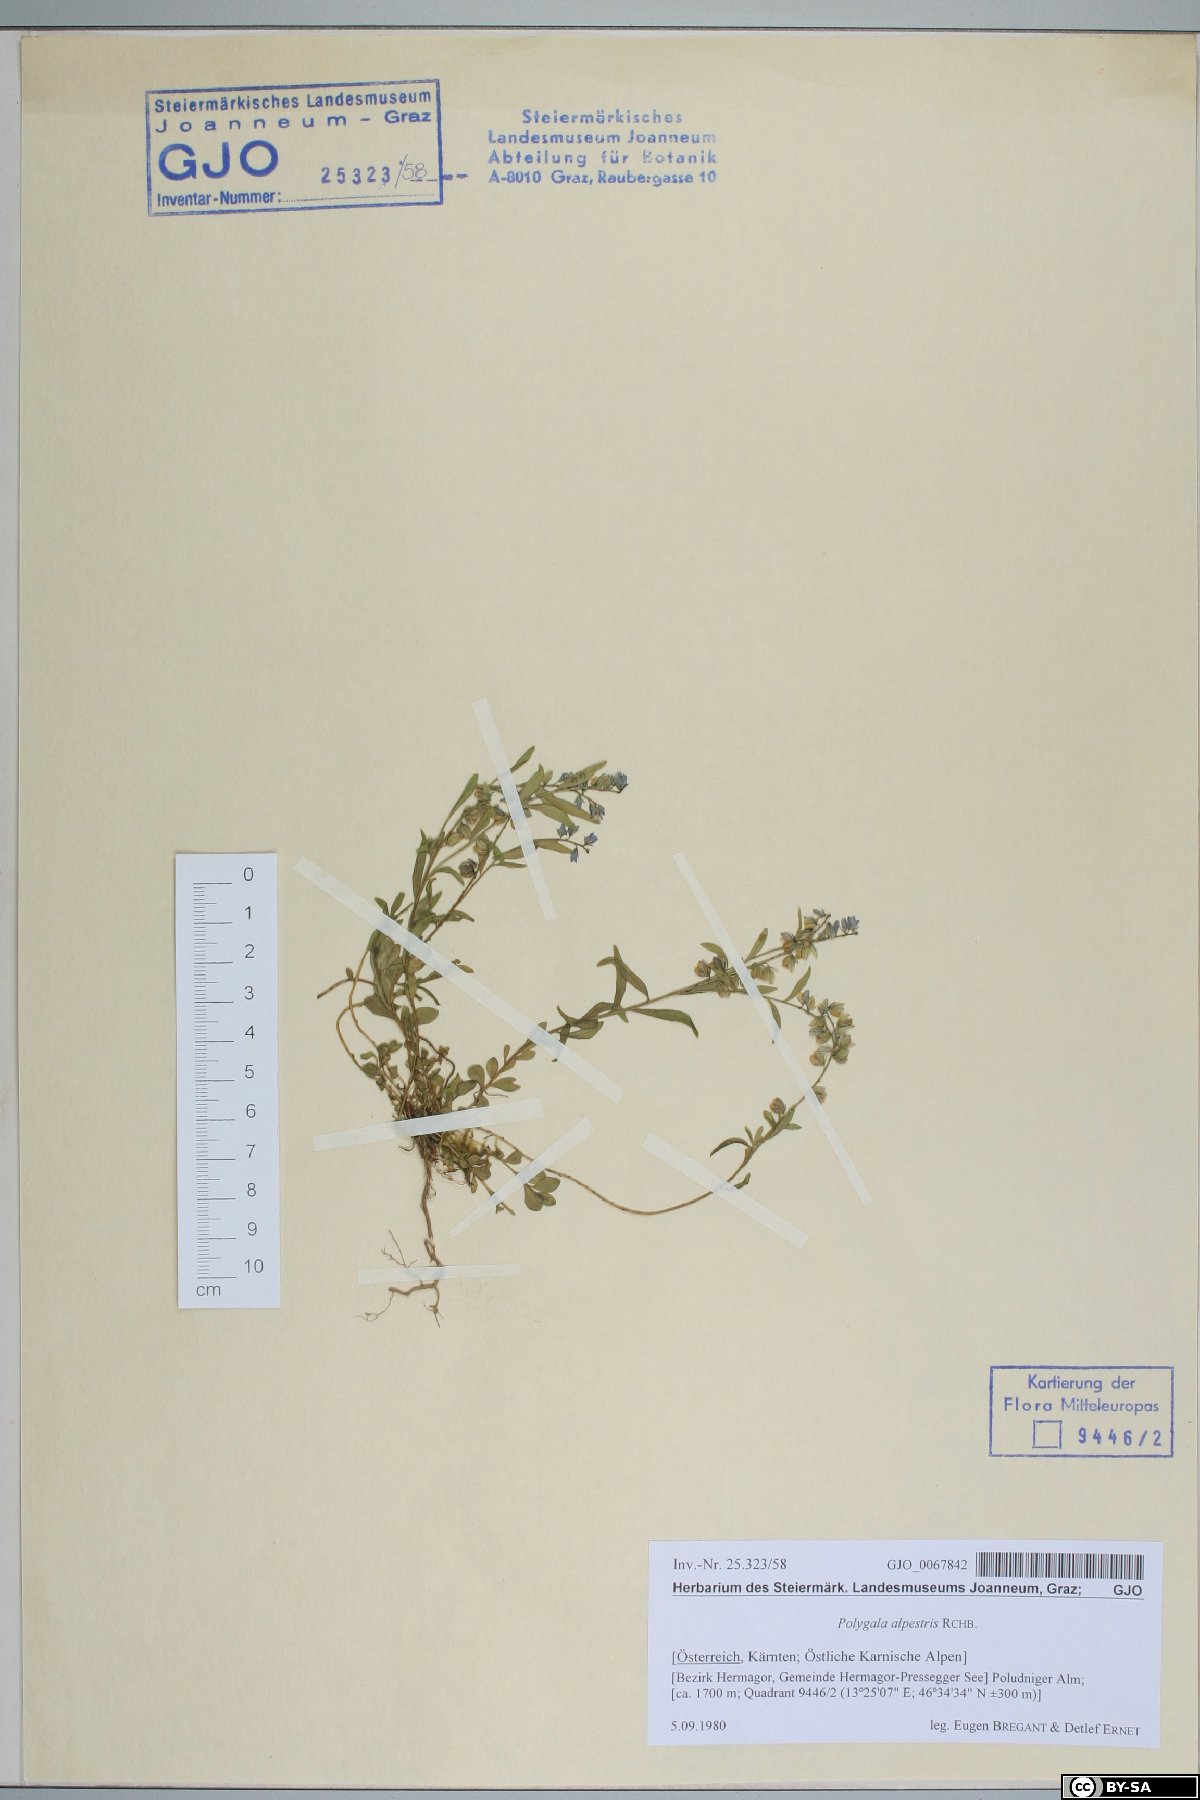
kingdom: Plantae
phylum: Tracheophyta
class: Magnoliopsida
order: Fabales
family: Polygalaceae
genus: Polygala
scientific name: Polygala alpestris
